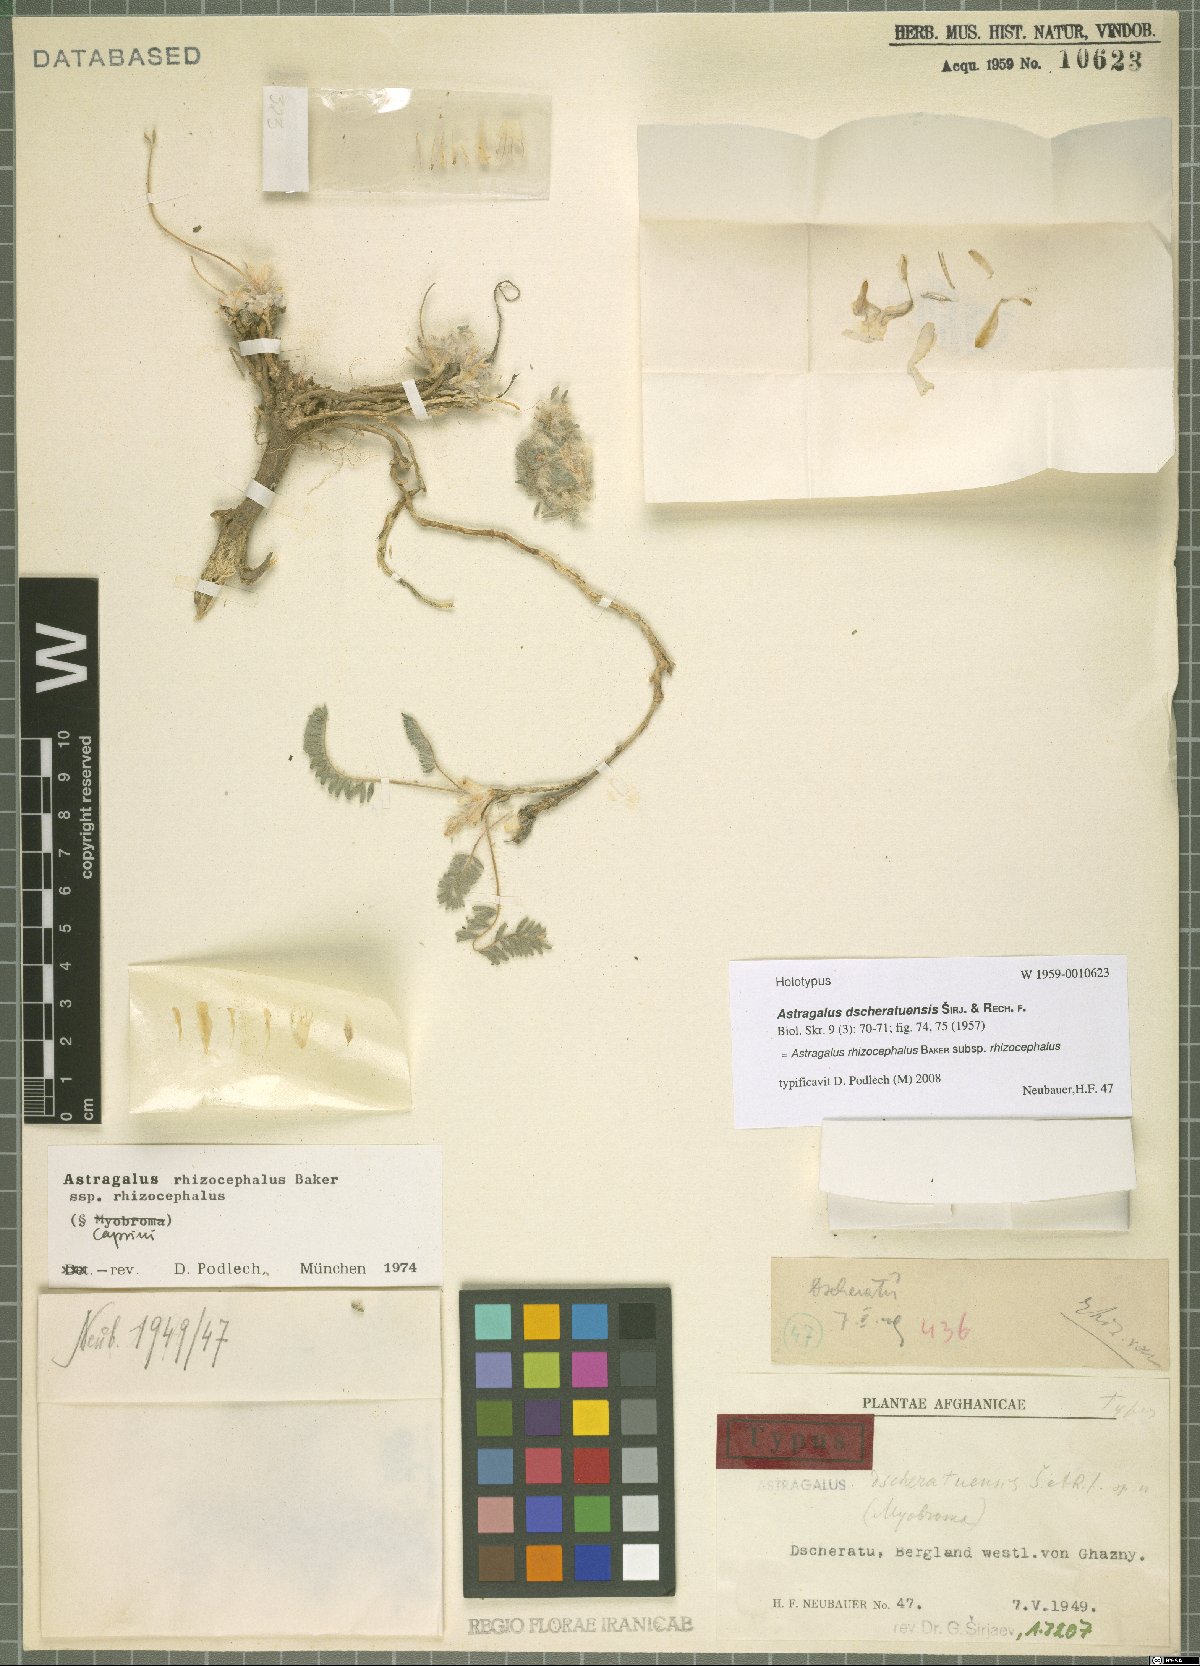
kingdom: Plantae
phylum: Tracheophyta
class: Magnoliopsida
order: Fabales
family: Fabaceae
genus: Astragalus
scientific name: Astragalus rhizocephalus
